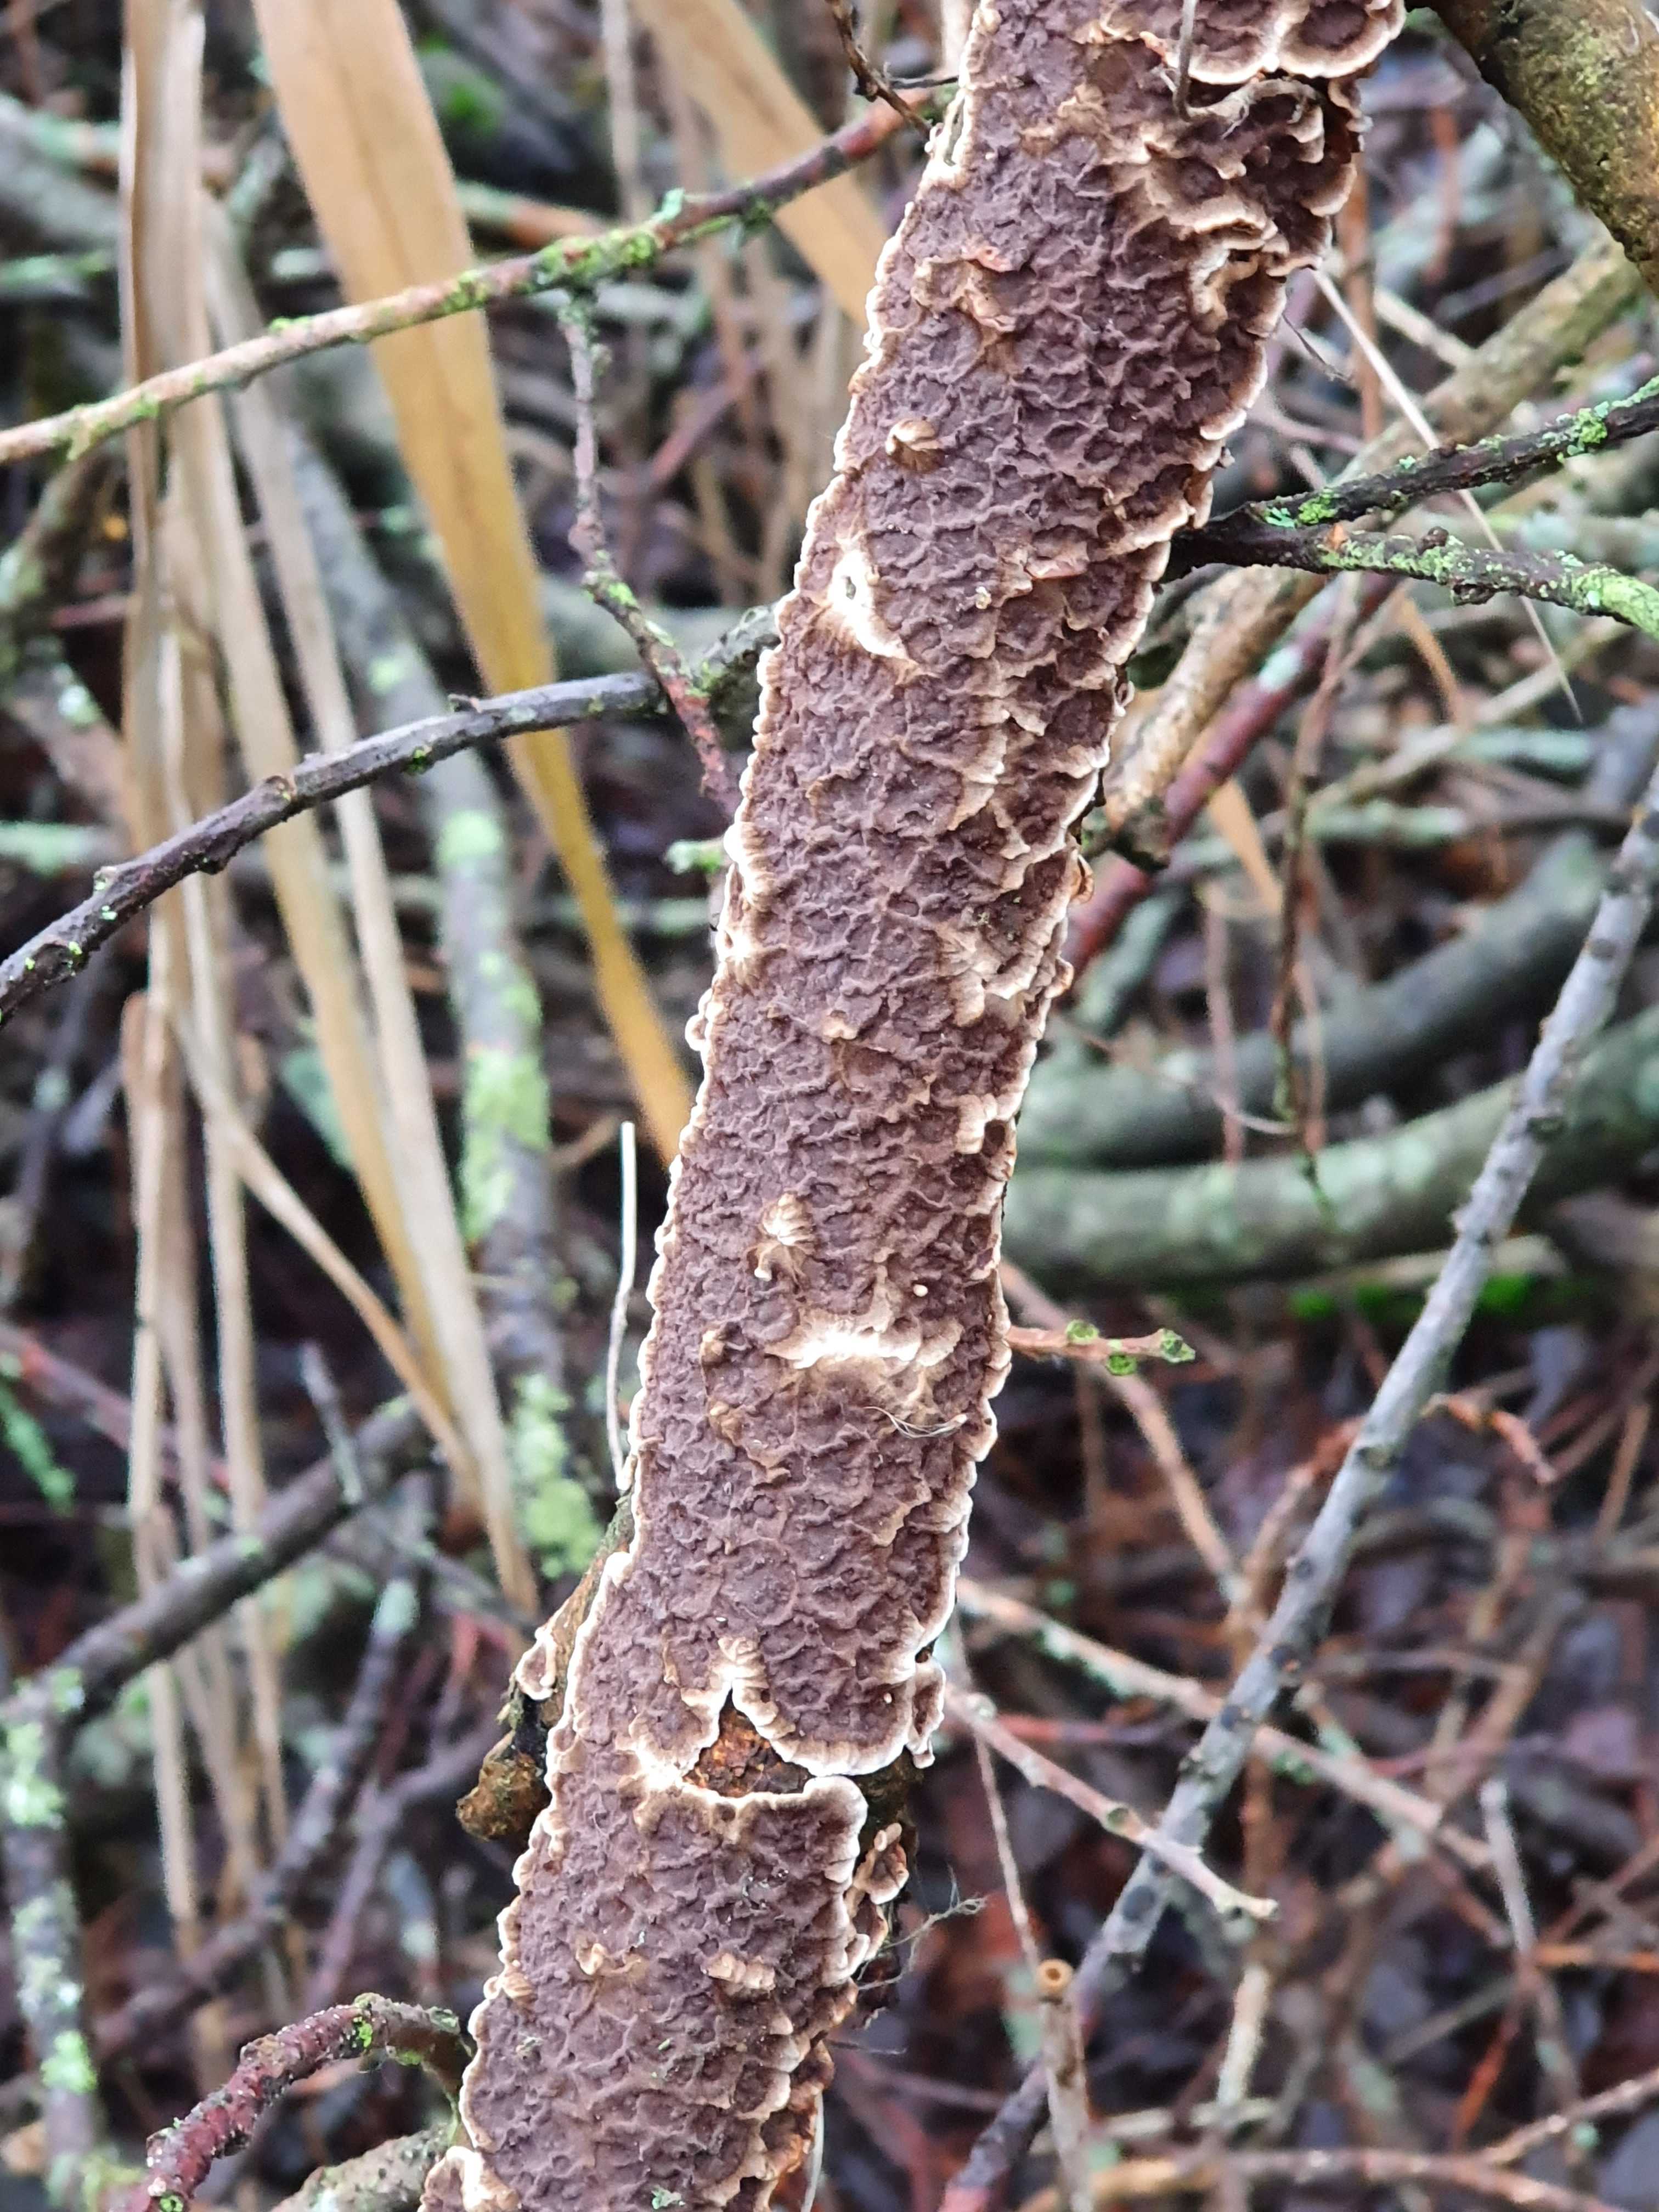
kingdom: Fungi
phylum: Basidiomycota
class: Agaricomycetes
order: Hymenochaetales
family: Hymenochaetaceae
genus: Hydnoporia
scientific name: Hydnoporia tabacina
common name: tobaksbrun ruslædersvamp
